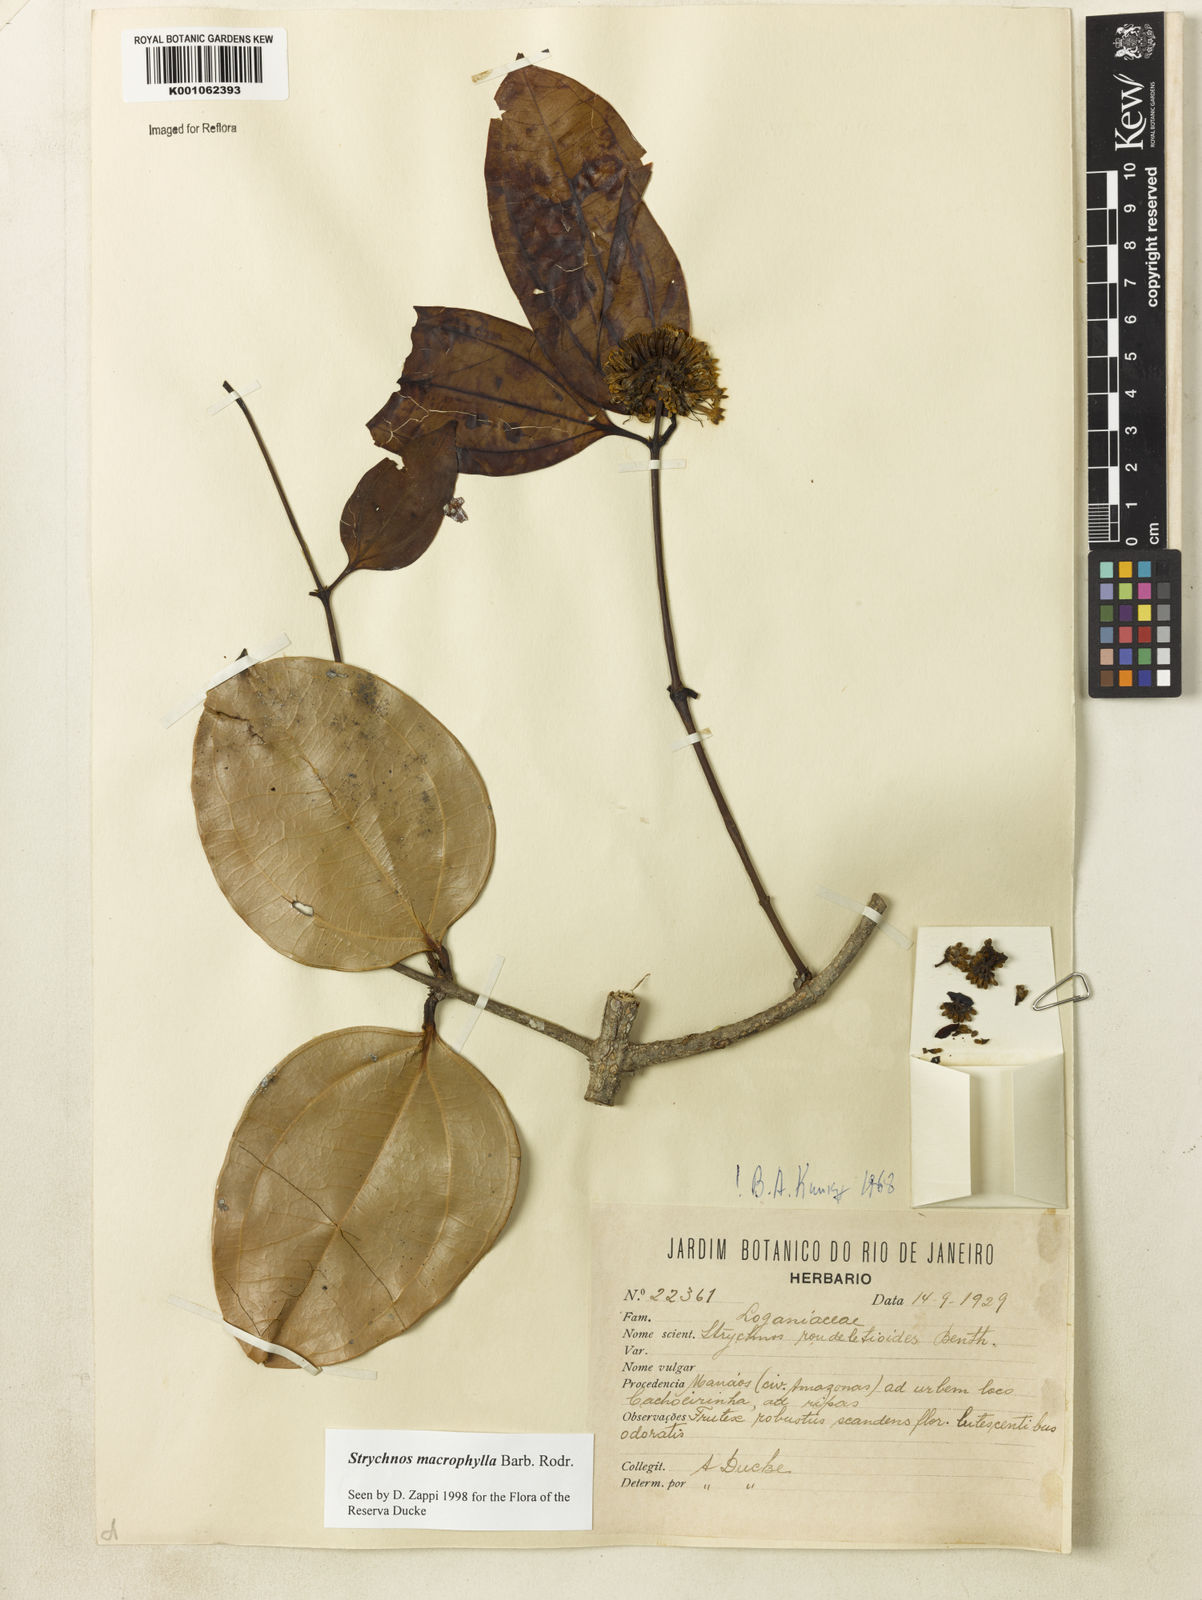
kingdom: Plantae
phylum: Tracheophyta
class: Magnoliopsida
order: Gentianales
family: Loganiaceae
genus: Strychnos
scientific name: Strychnos
